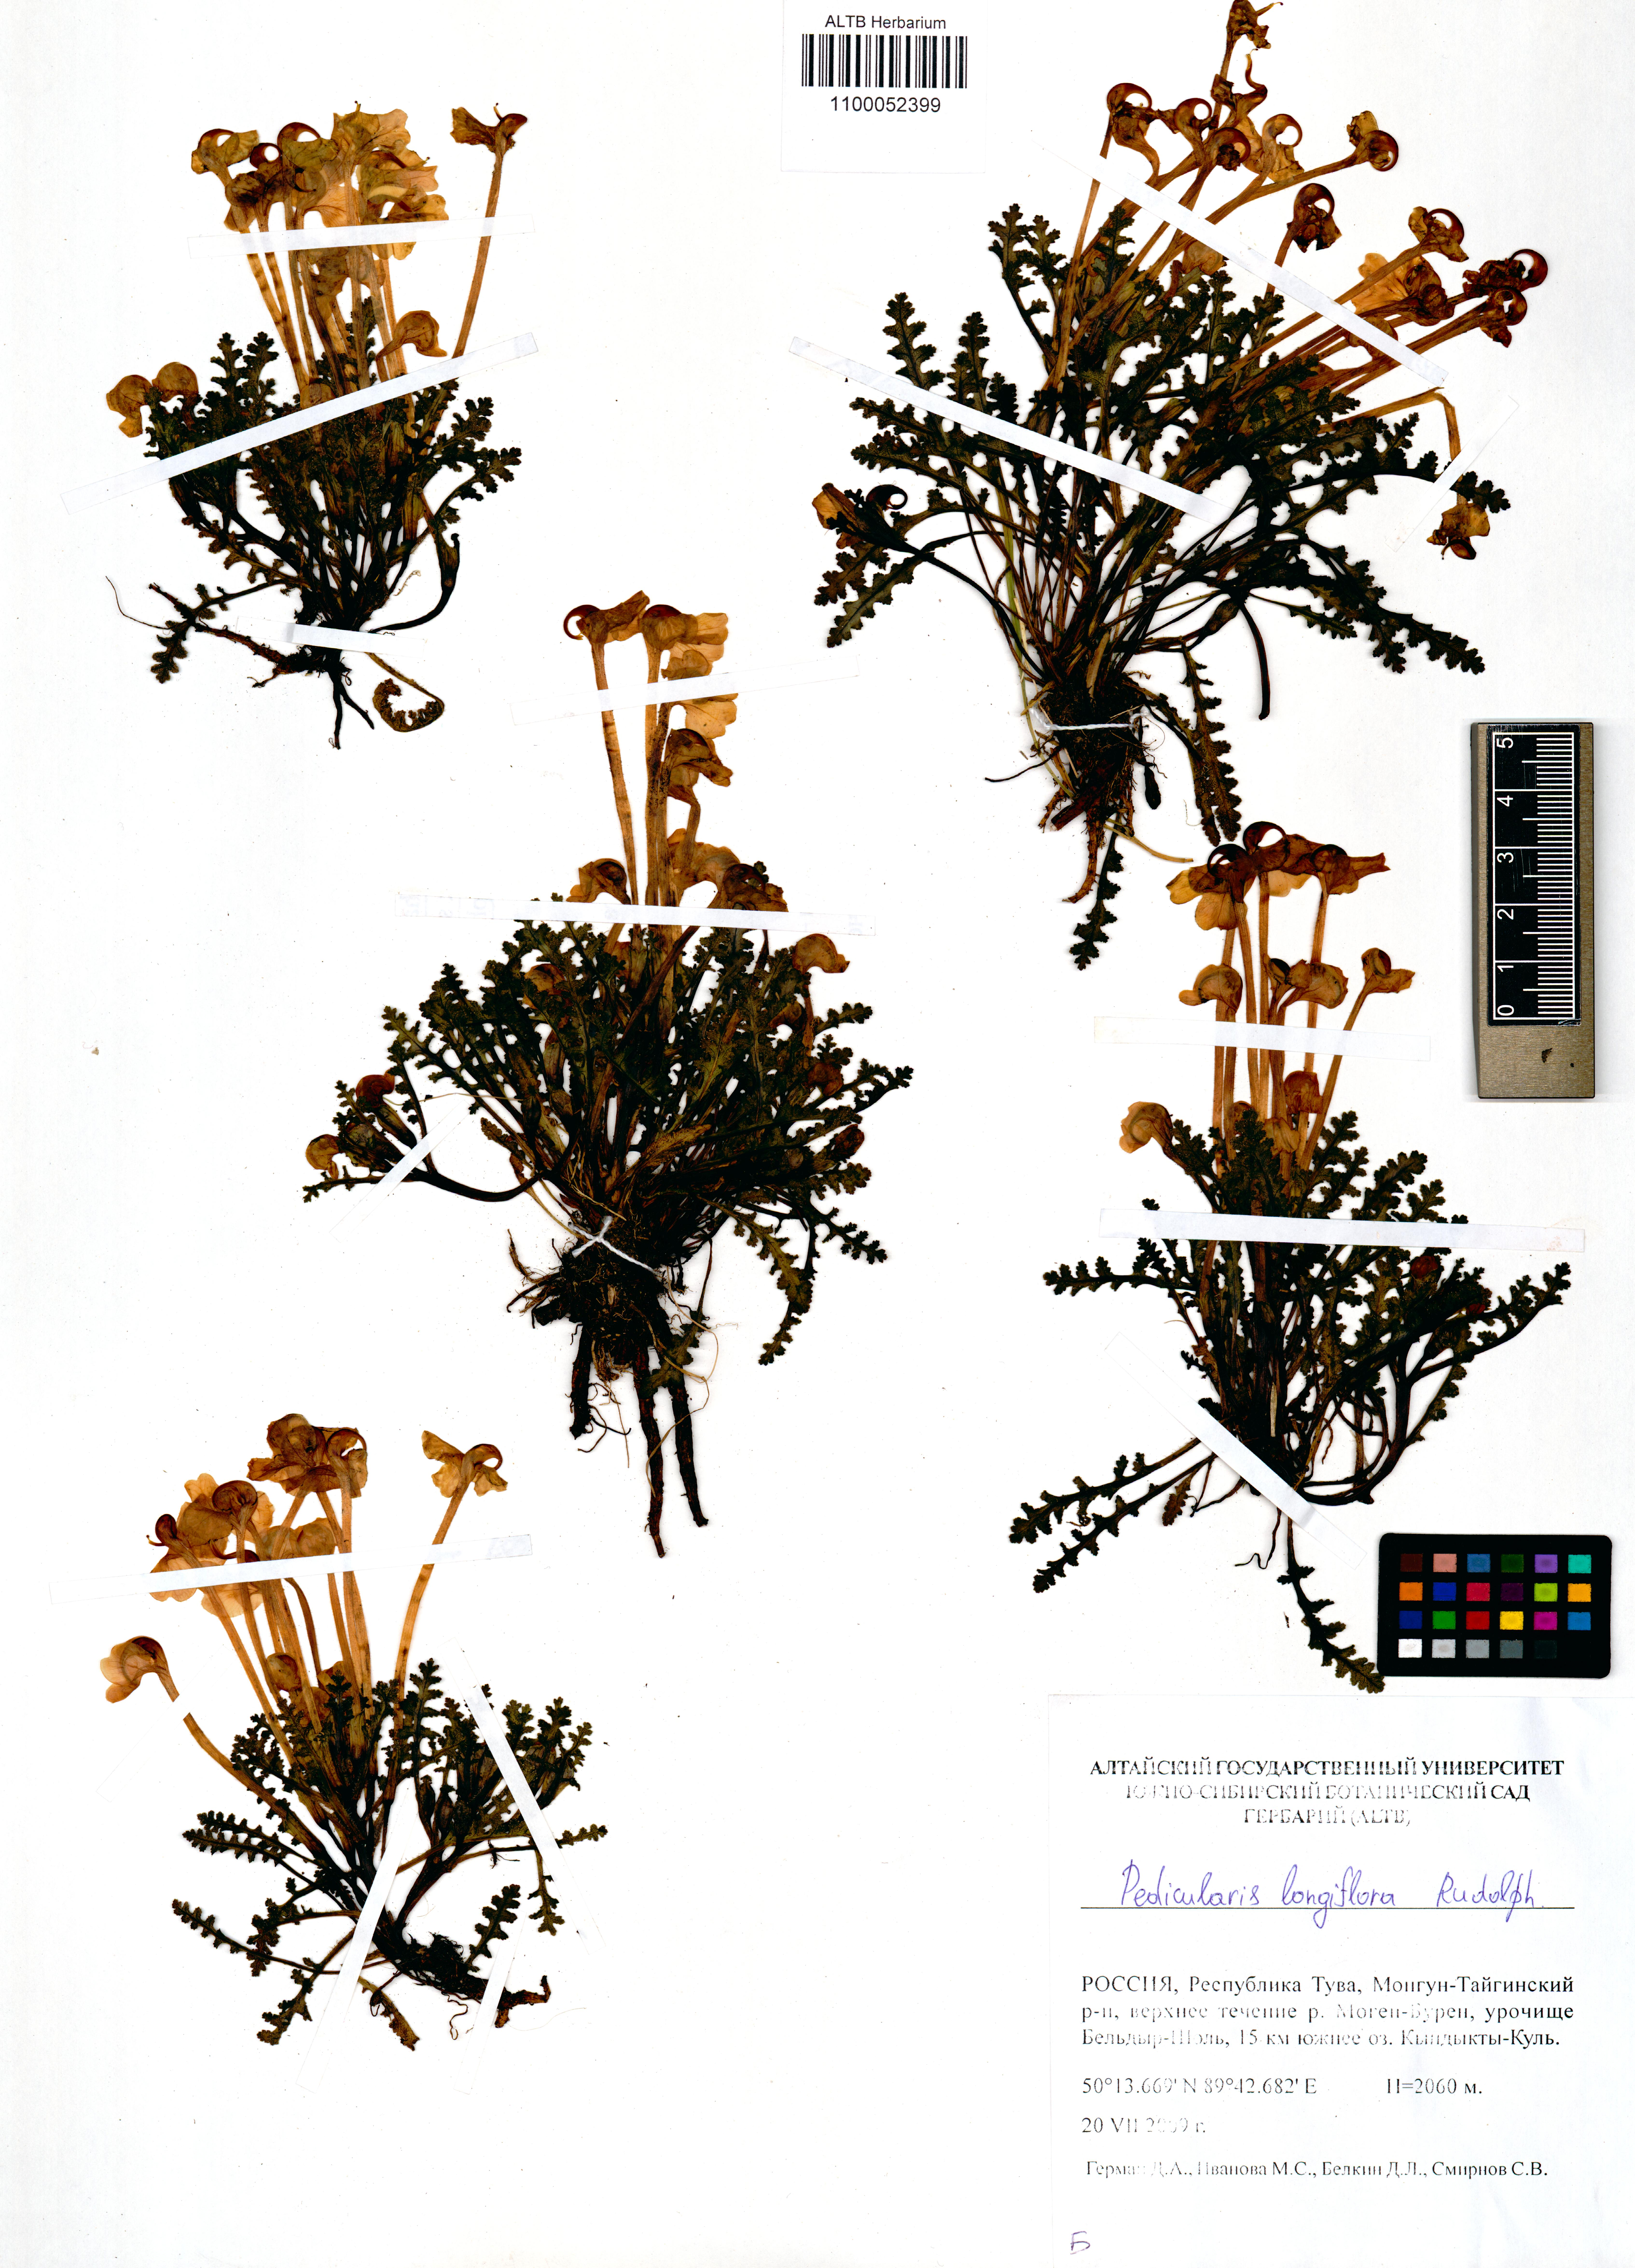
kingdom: Plantae
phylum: Tracheophyta
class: Magnoliopsida
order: Lamiales
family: Orobanchaceae
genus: Pedicularis
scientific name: Pedicularis longiflora
